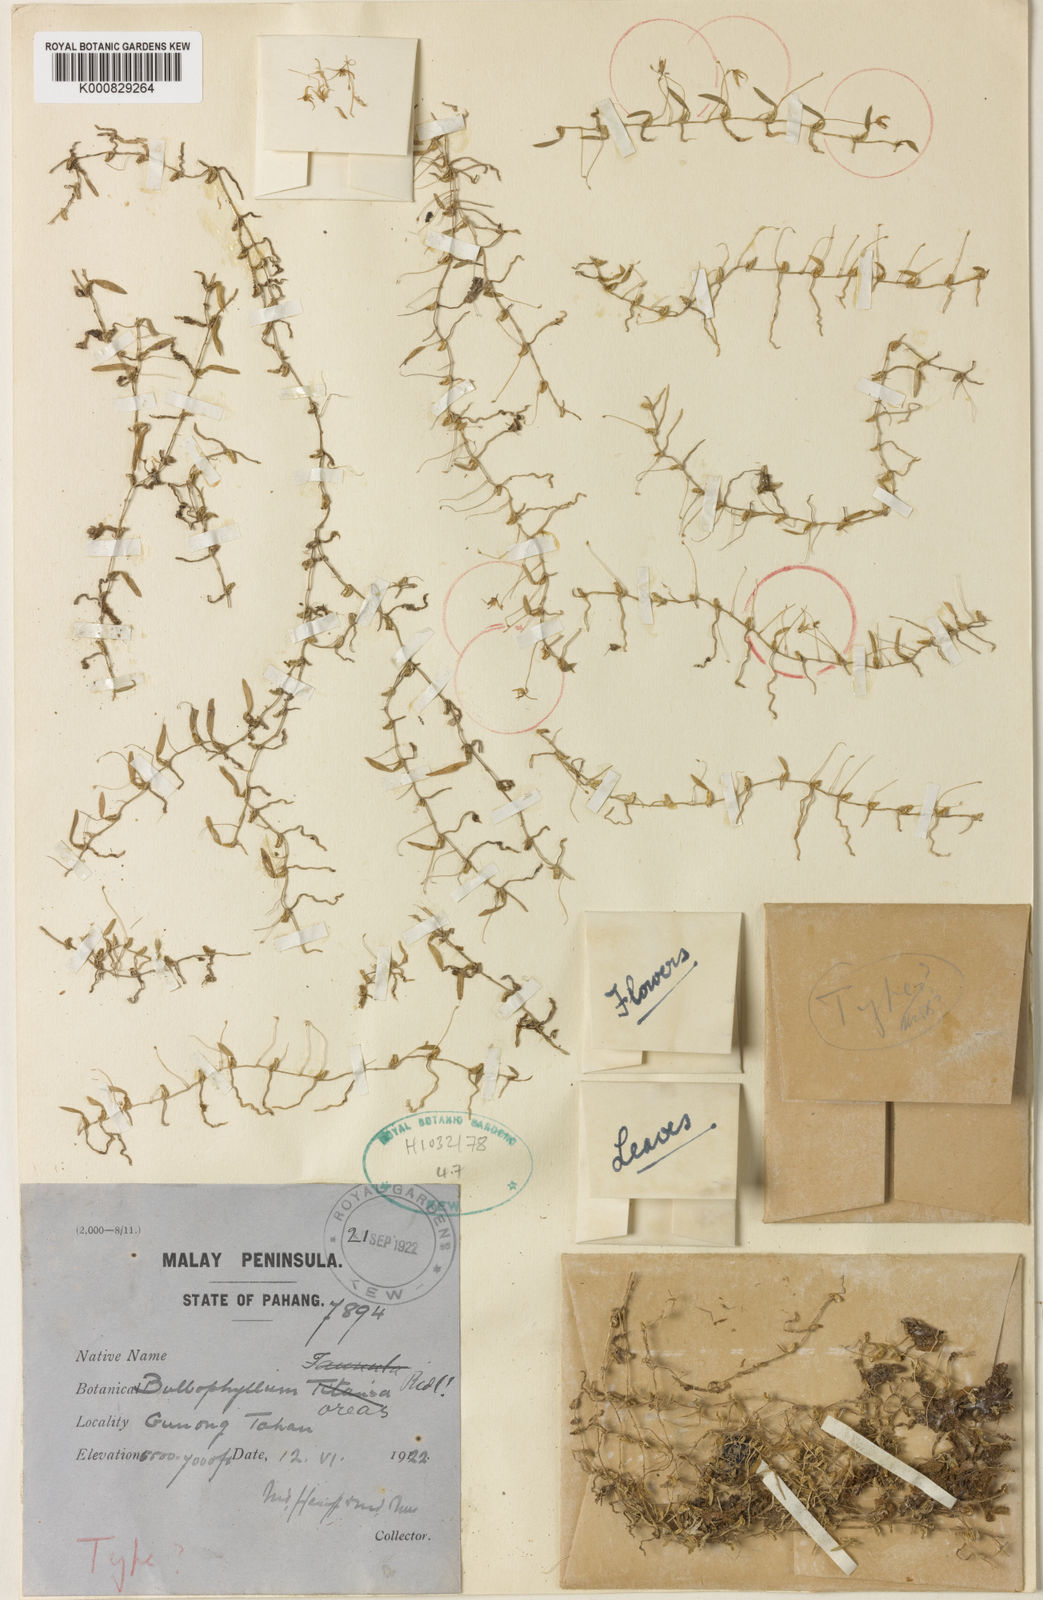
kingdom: Plantae
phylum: Tracheophyta
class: Liliopsida
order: Asparagales
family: Orchidaceae
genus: Bulbophyllum
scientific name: Bulbophyllum nematocaulon
